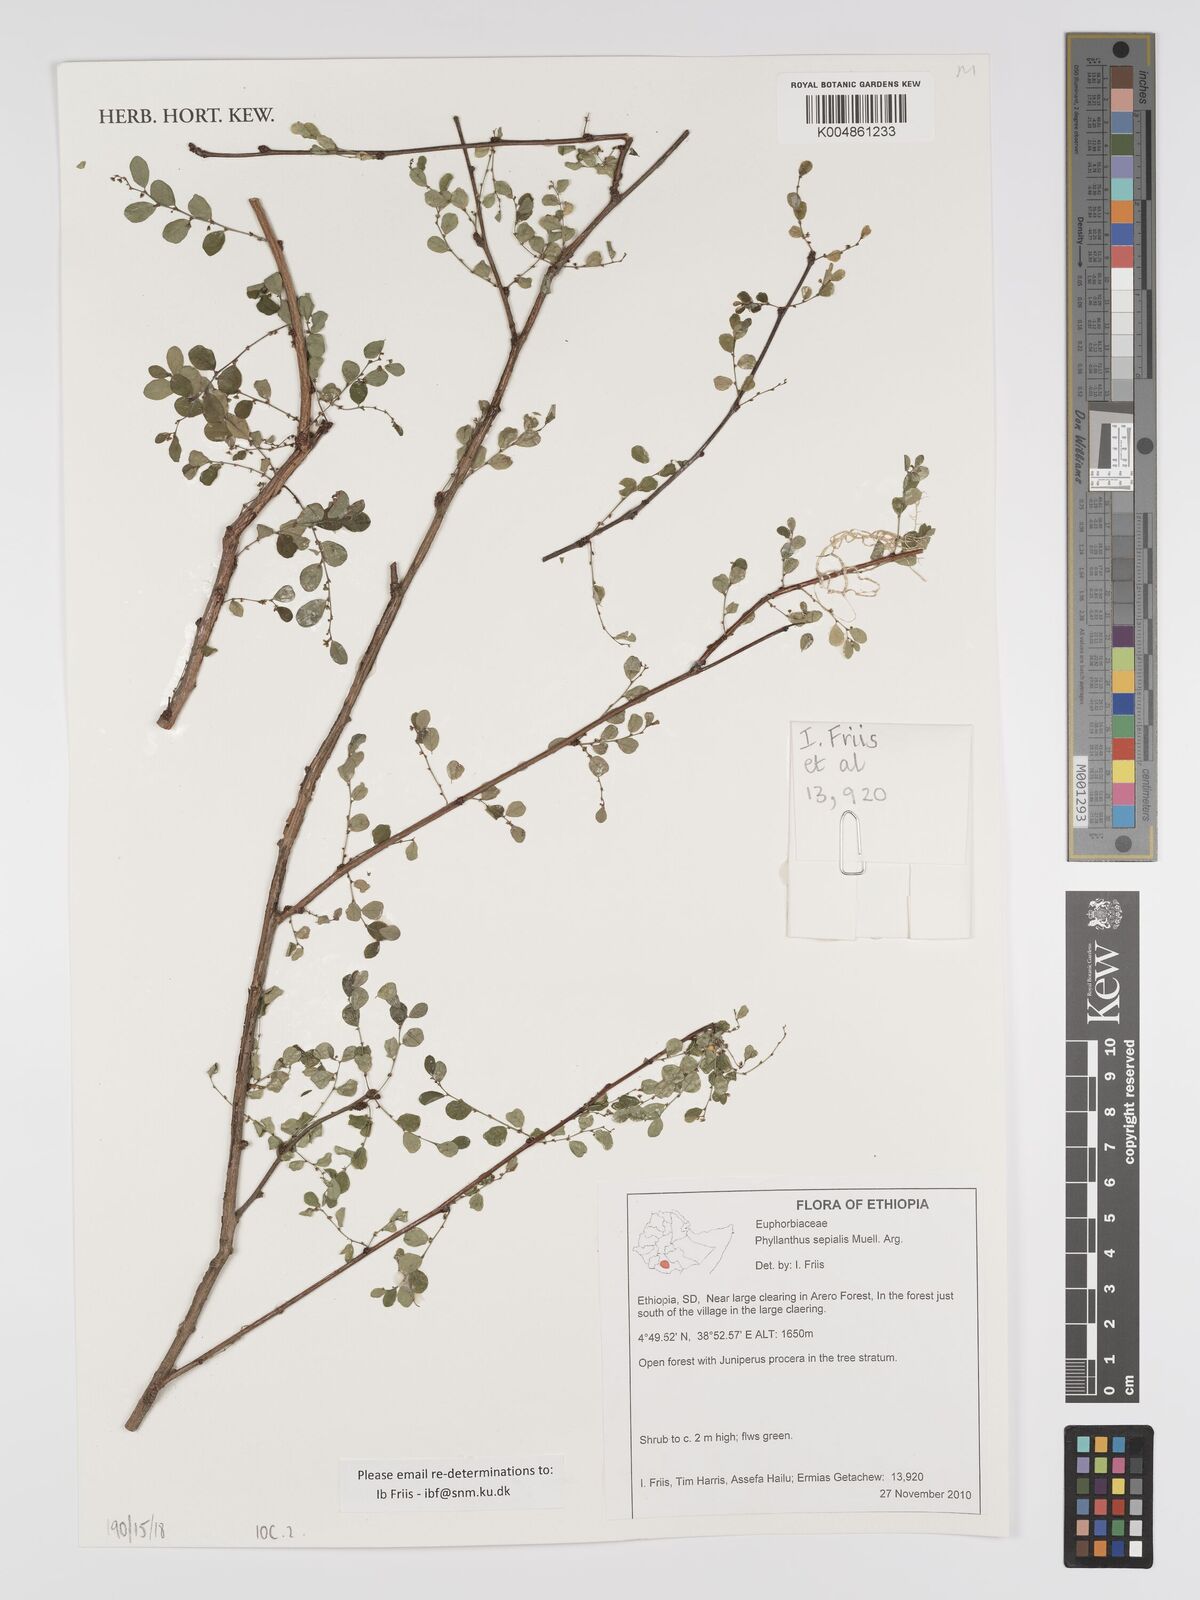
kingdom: Plantae
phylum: Tracheophyta
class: Magnoliopsida
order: Malpighiales
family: Phyllanthaceae
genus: Phyllanthus
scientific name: Phyllanthus sepialis
